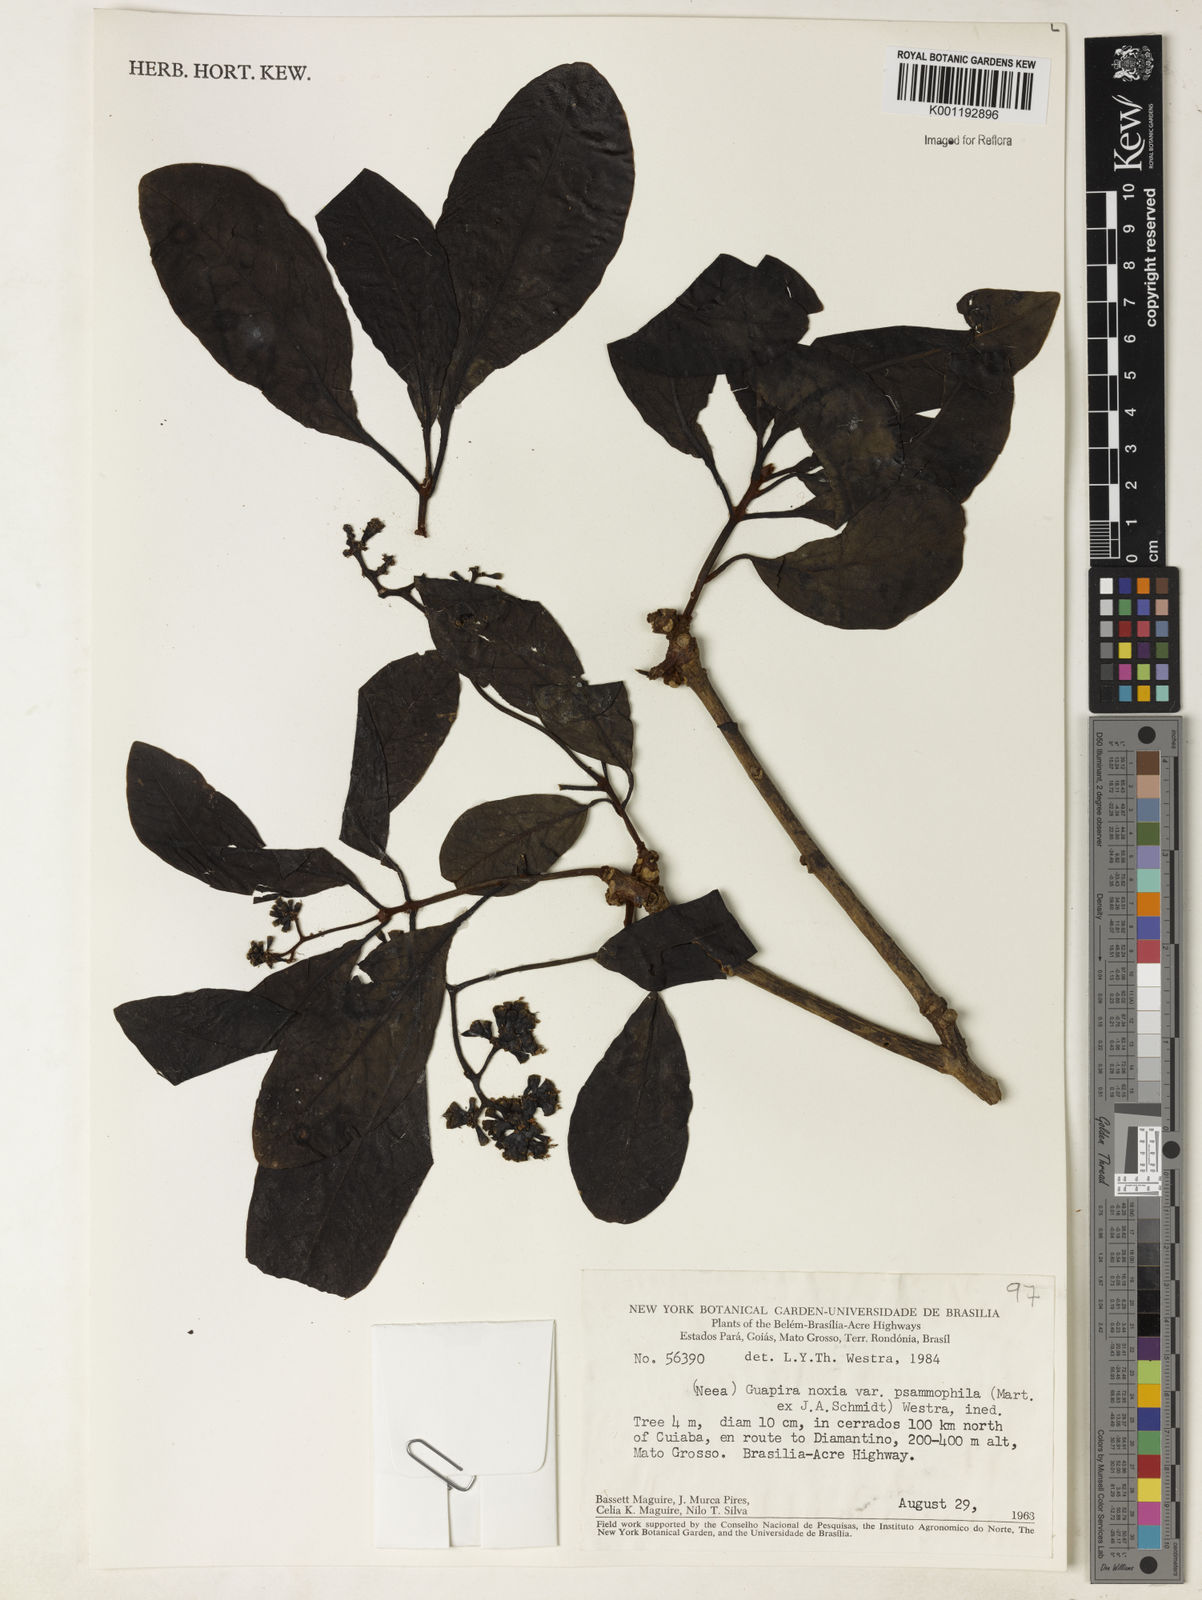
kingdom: Plantae
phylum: Tracheophyta
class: Magnoliopsida
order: Caryophyllales
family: Nyctaginaceae
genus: Guapira
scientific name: Guapira noxia
